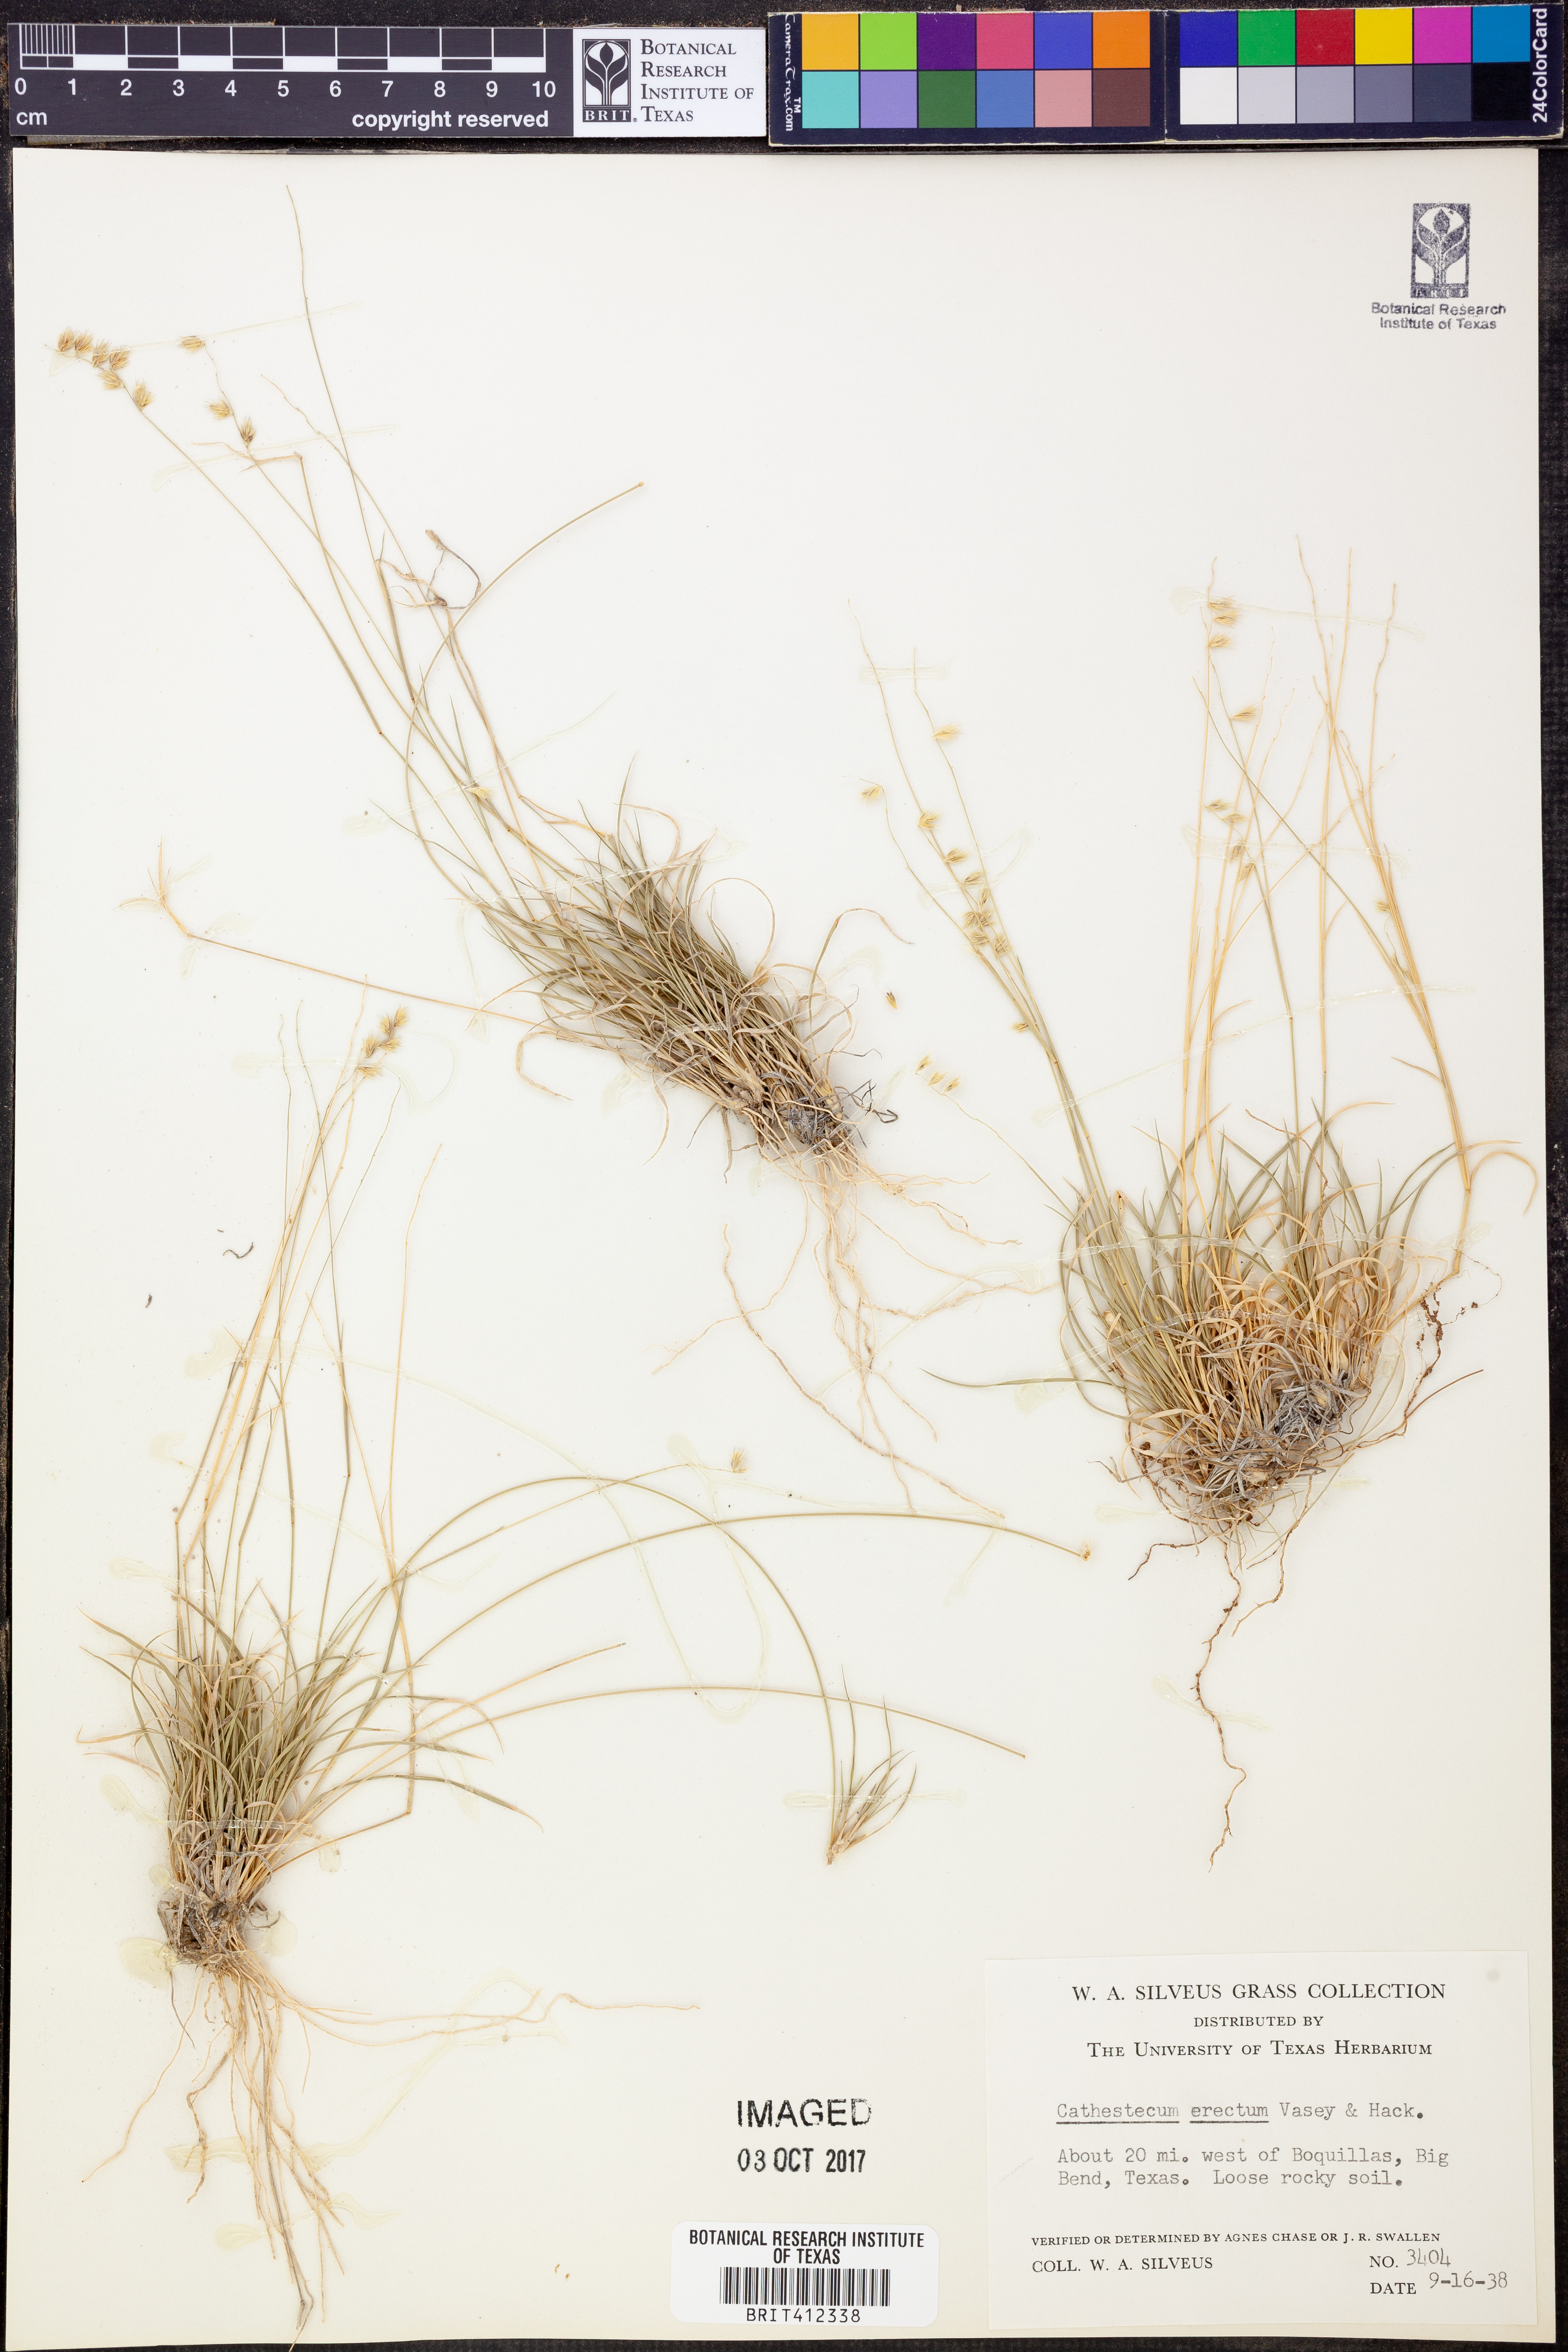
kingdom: Plantae
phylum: Tracheophyta
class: Liliopsida
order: Poales
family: Poaceae
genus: Bouteloua
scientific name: Bouteloua erecta
